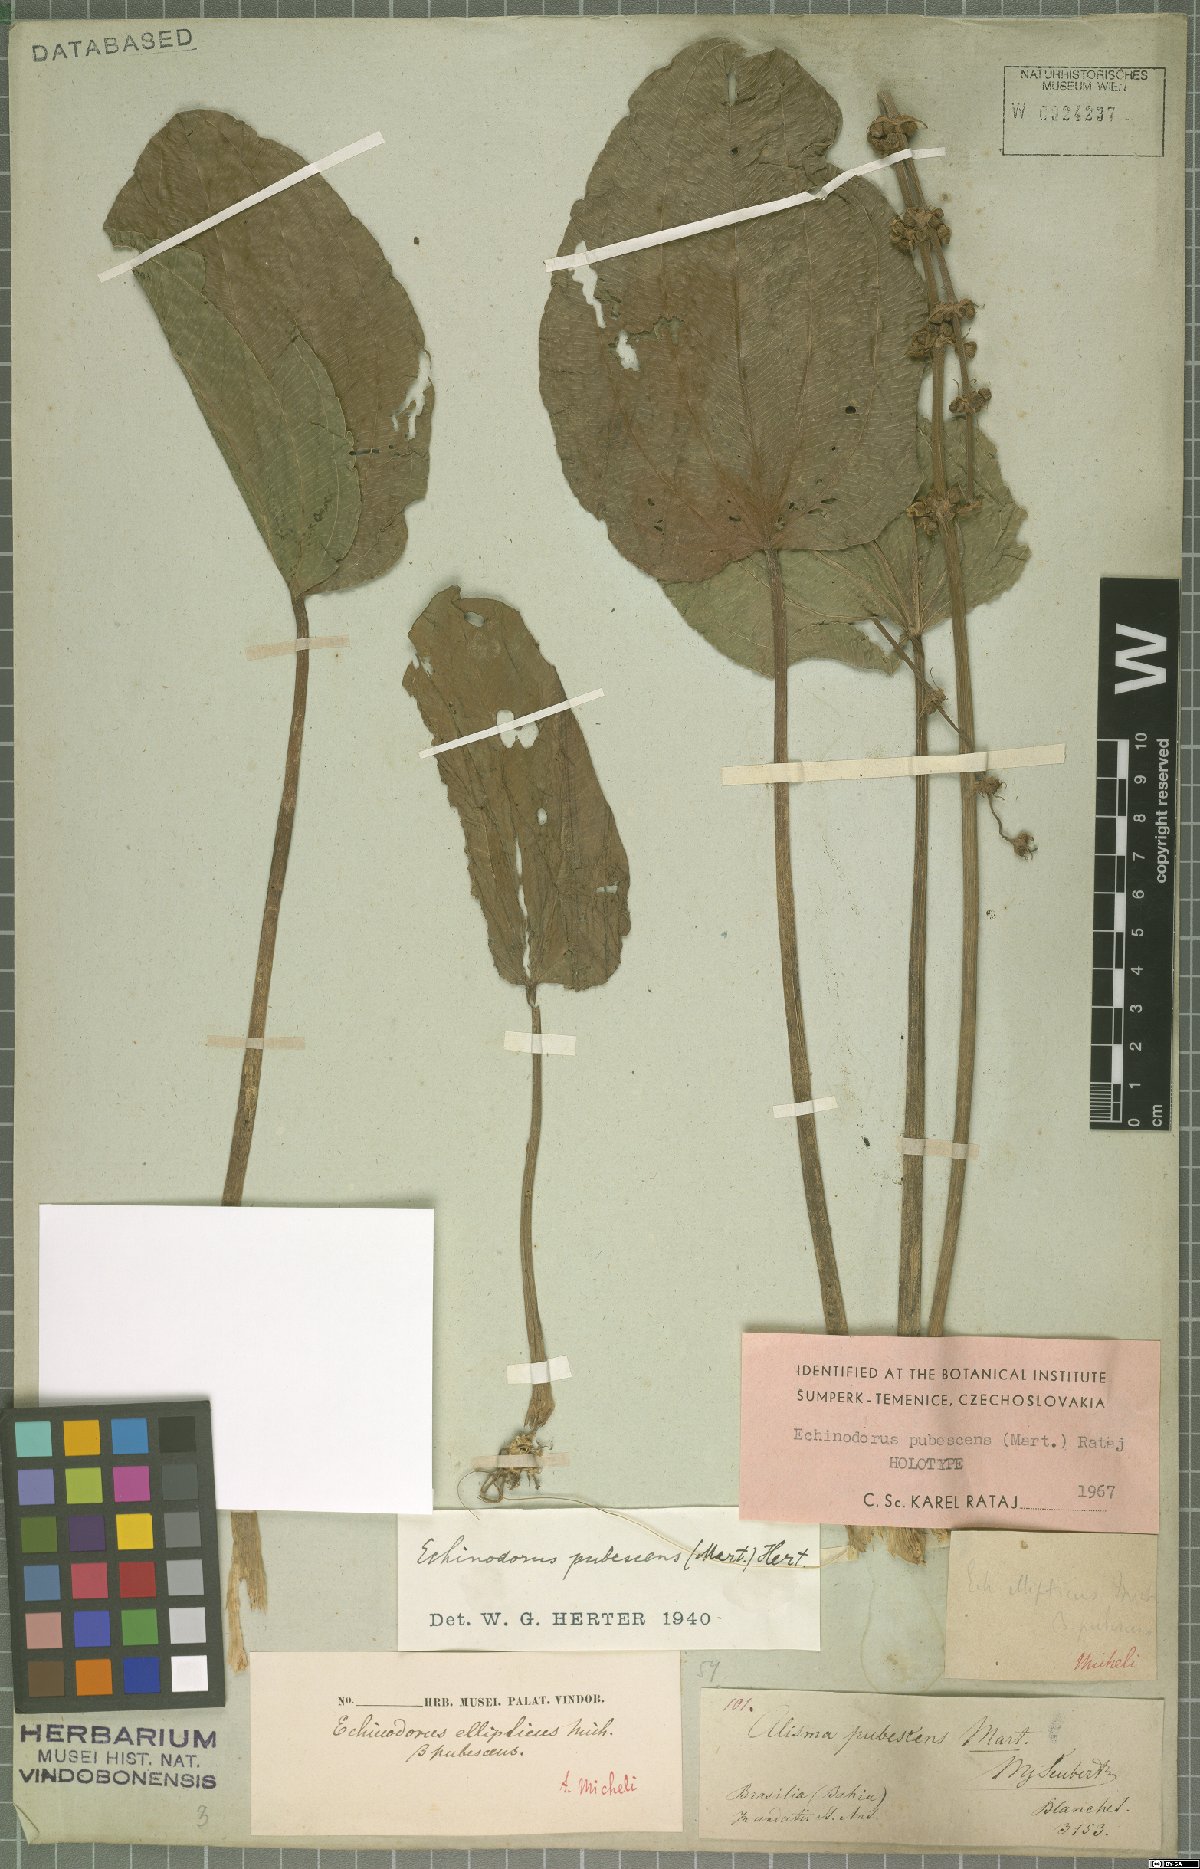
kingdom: Plantae
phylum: Tracheophyta
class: Liliopsida
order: Alismatales
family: Alismataceae
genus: Aquarius
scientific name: Aquarius pubescens
